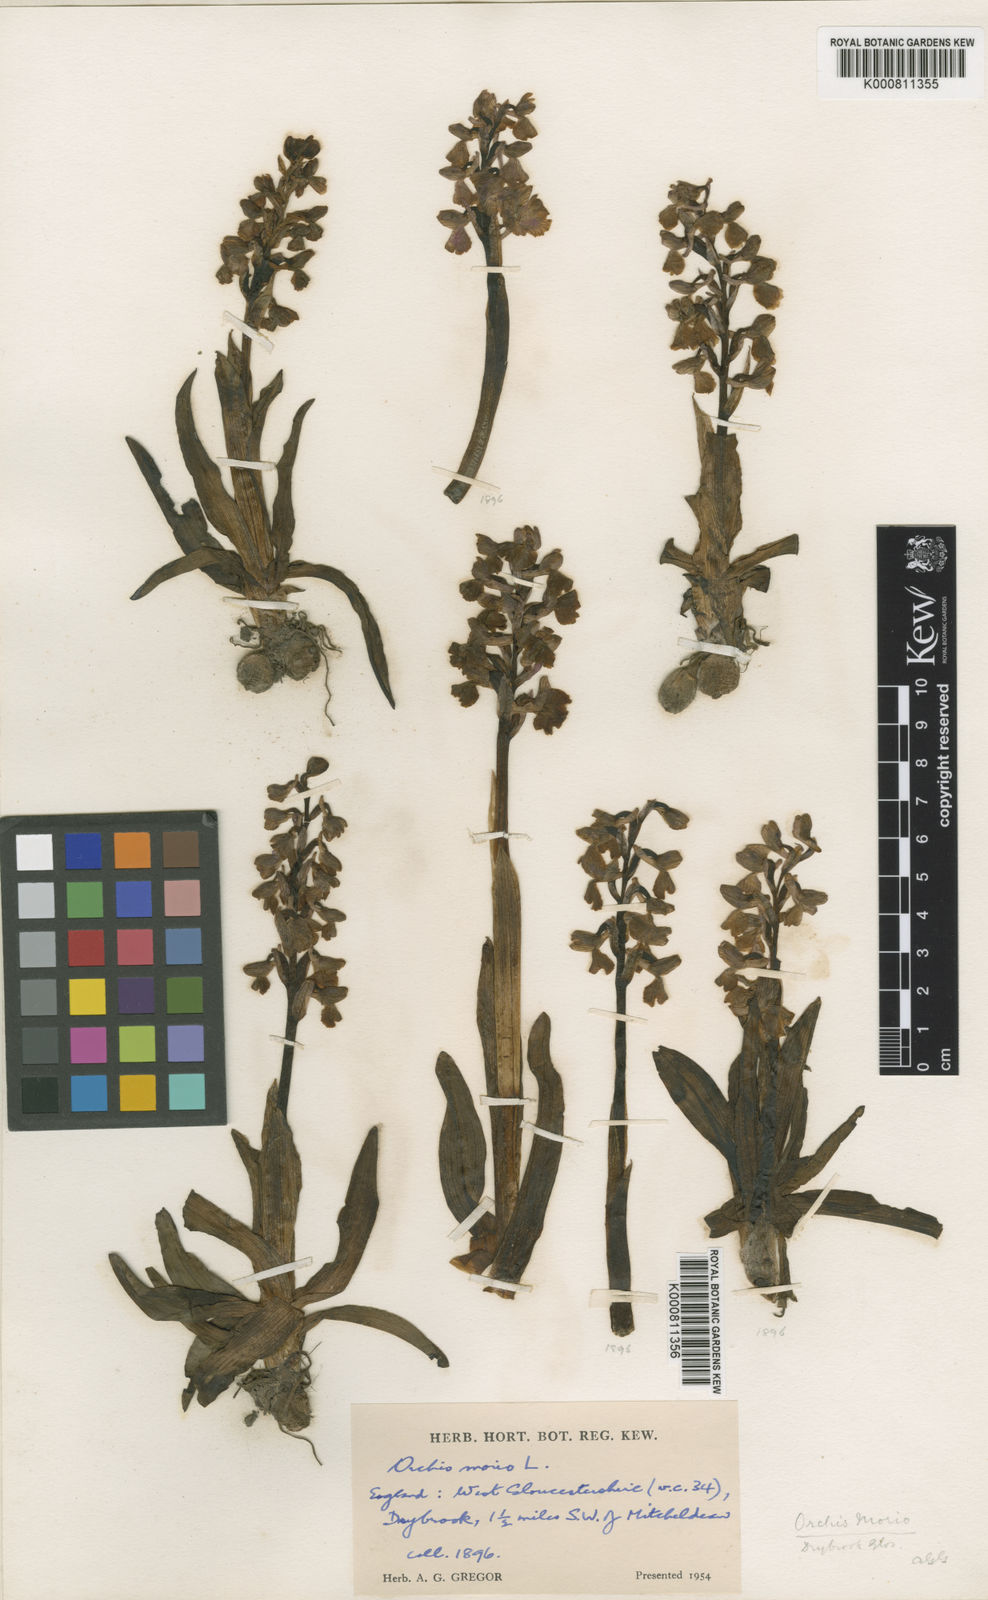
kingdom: Plantae
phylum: Tracheophyta
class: Liliopsida
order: Asparagales
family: Orchidaceae
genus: Anacamptis
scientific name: Anacamptis morio
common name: Green-winged orchid
